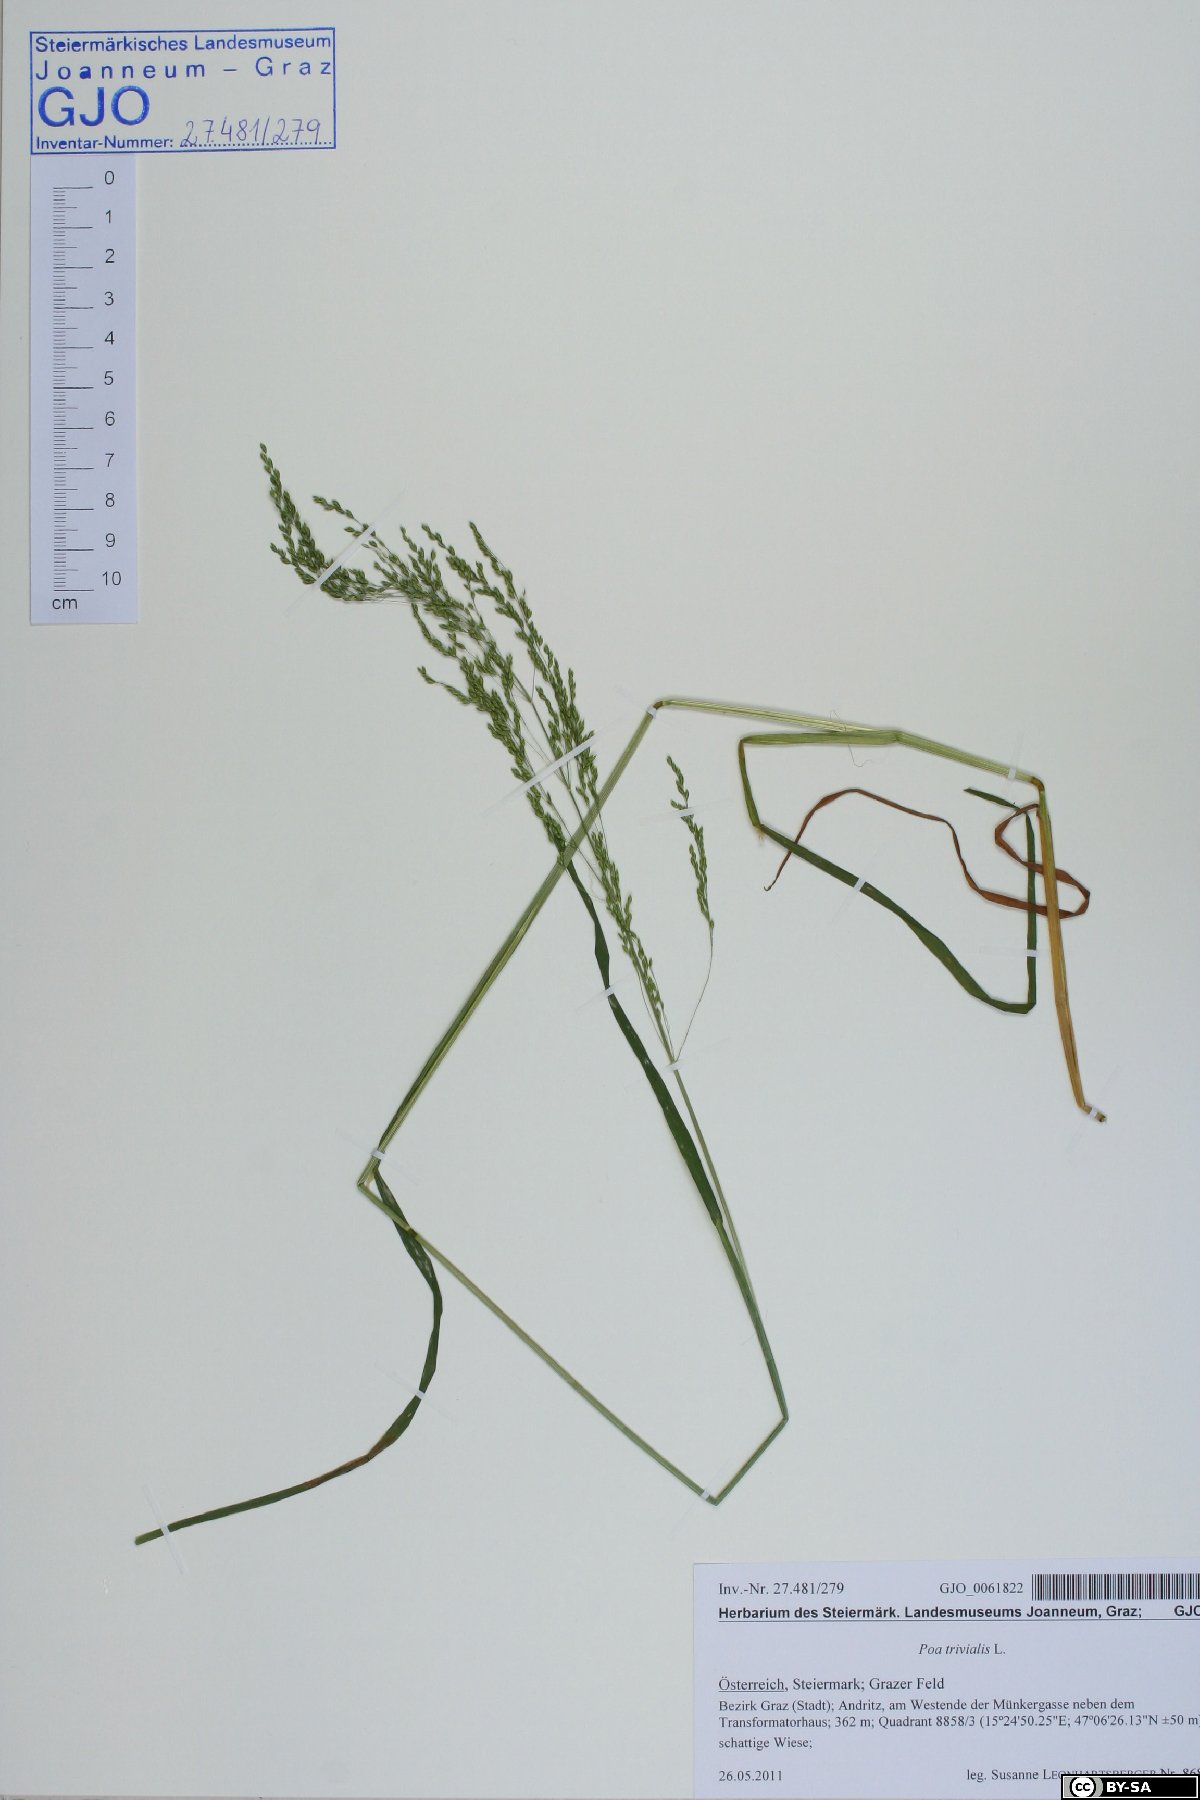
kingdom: Plantae
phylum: Tracheophyta
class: Liliopsida
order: Poales
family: Poaceae
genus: Poa
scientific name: Poa trivialis
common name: Rough bluegrass
